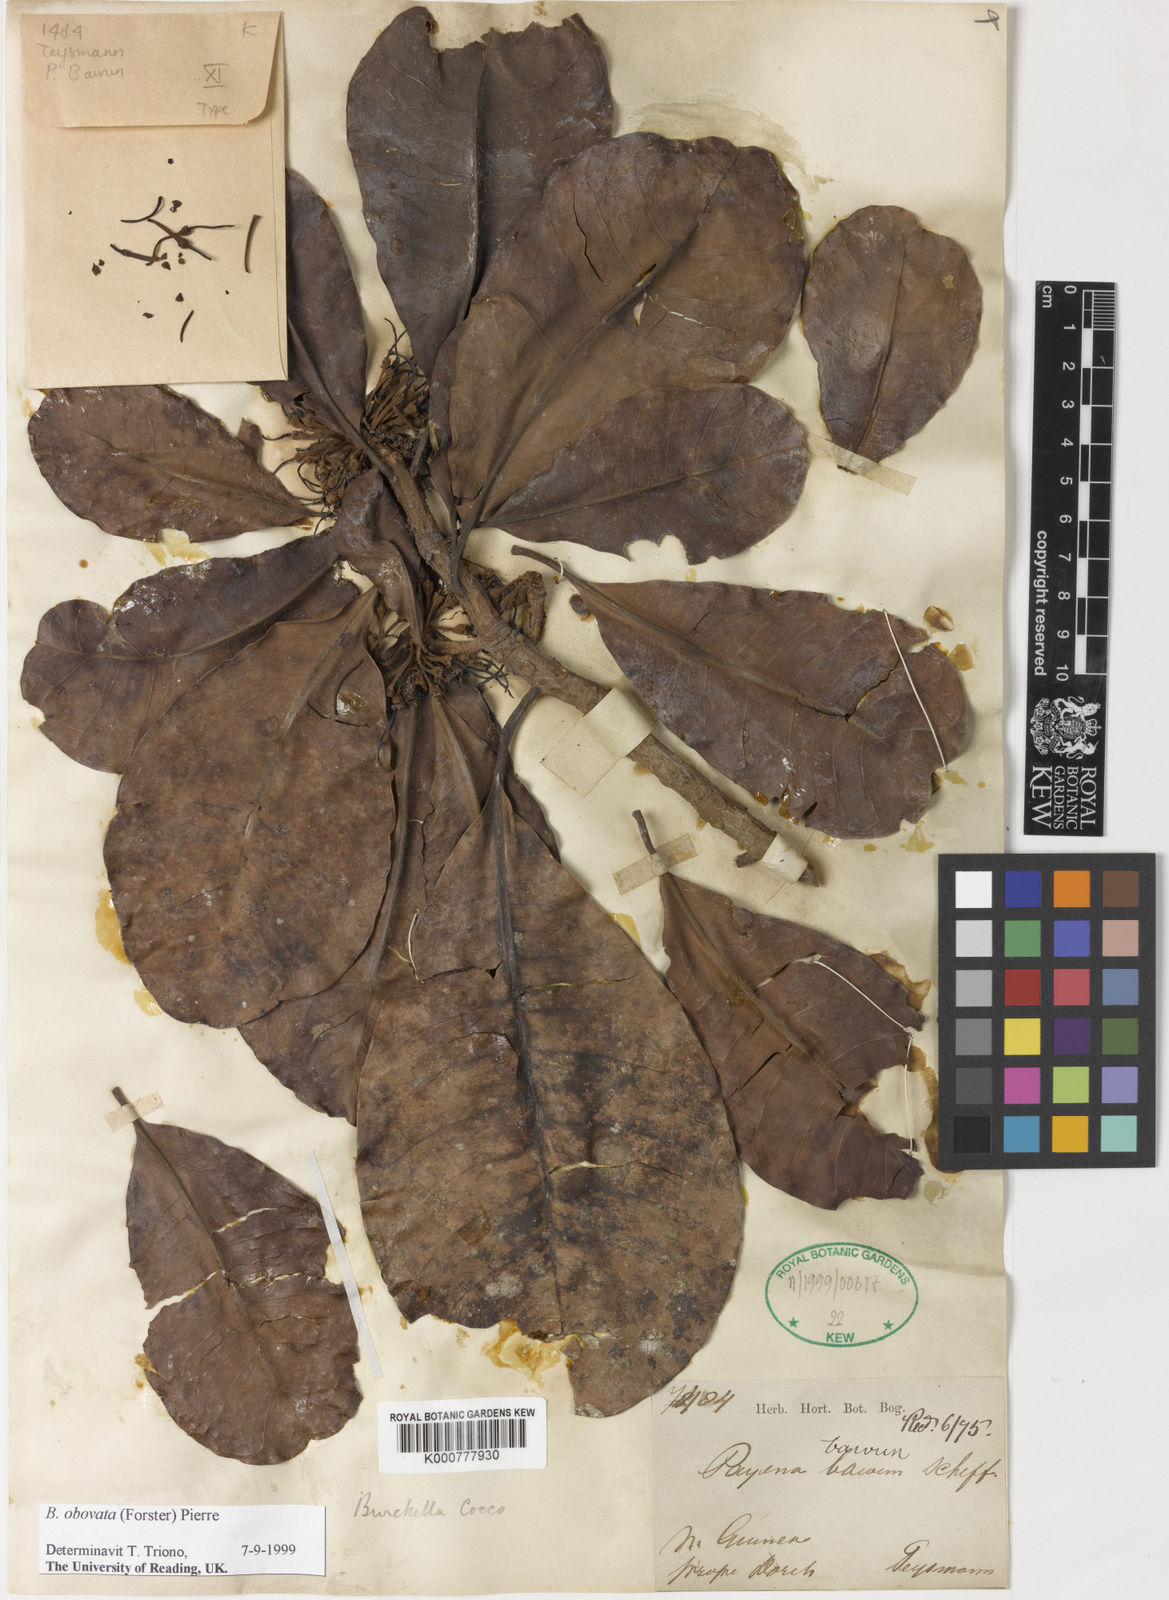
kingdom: Plantae
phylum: Tracheophyta
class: Magnoliopsida
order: Ericales
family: Sapotaceae
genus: Burckella
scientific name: Burckella obovata
